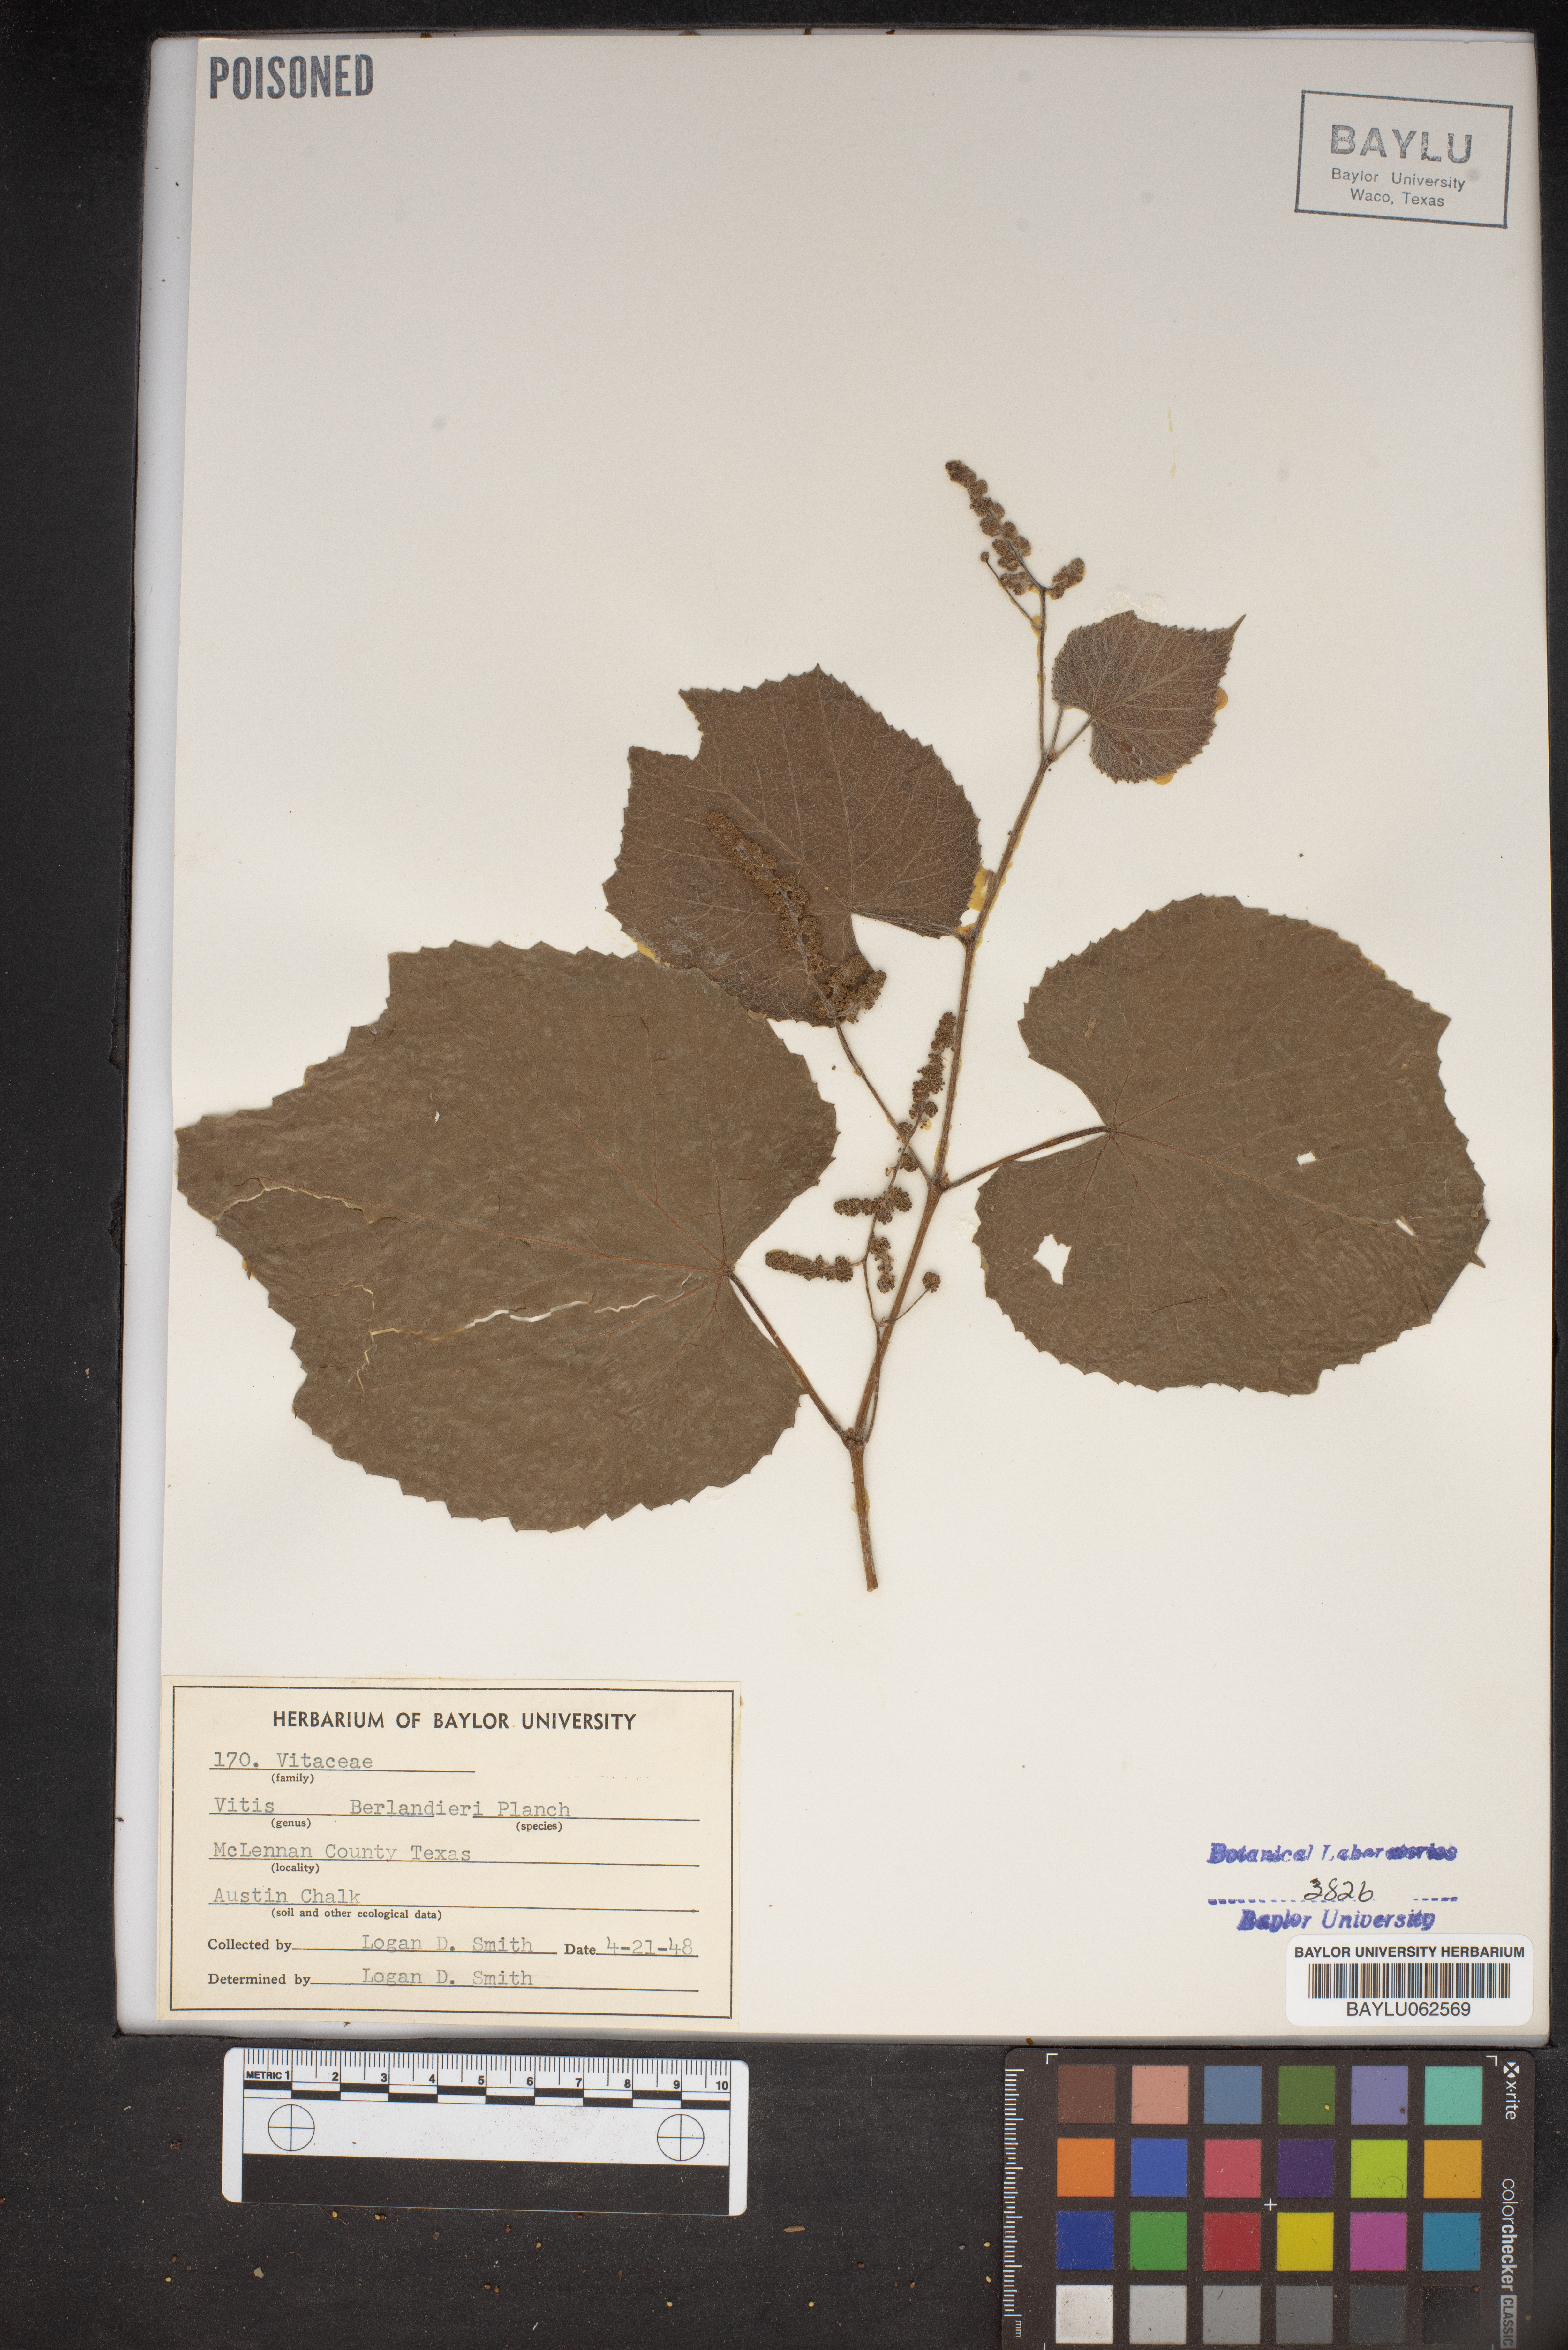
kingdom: Plantae
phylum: Tracheophyta
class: Magnoliopsida
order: Vitales
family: Vitaceae
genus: Vitis
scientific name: Vitis cinerea
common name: Ashy grape
